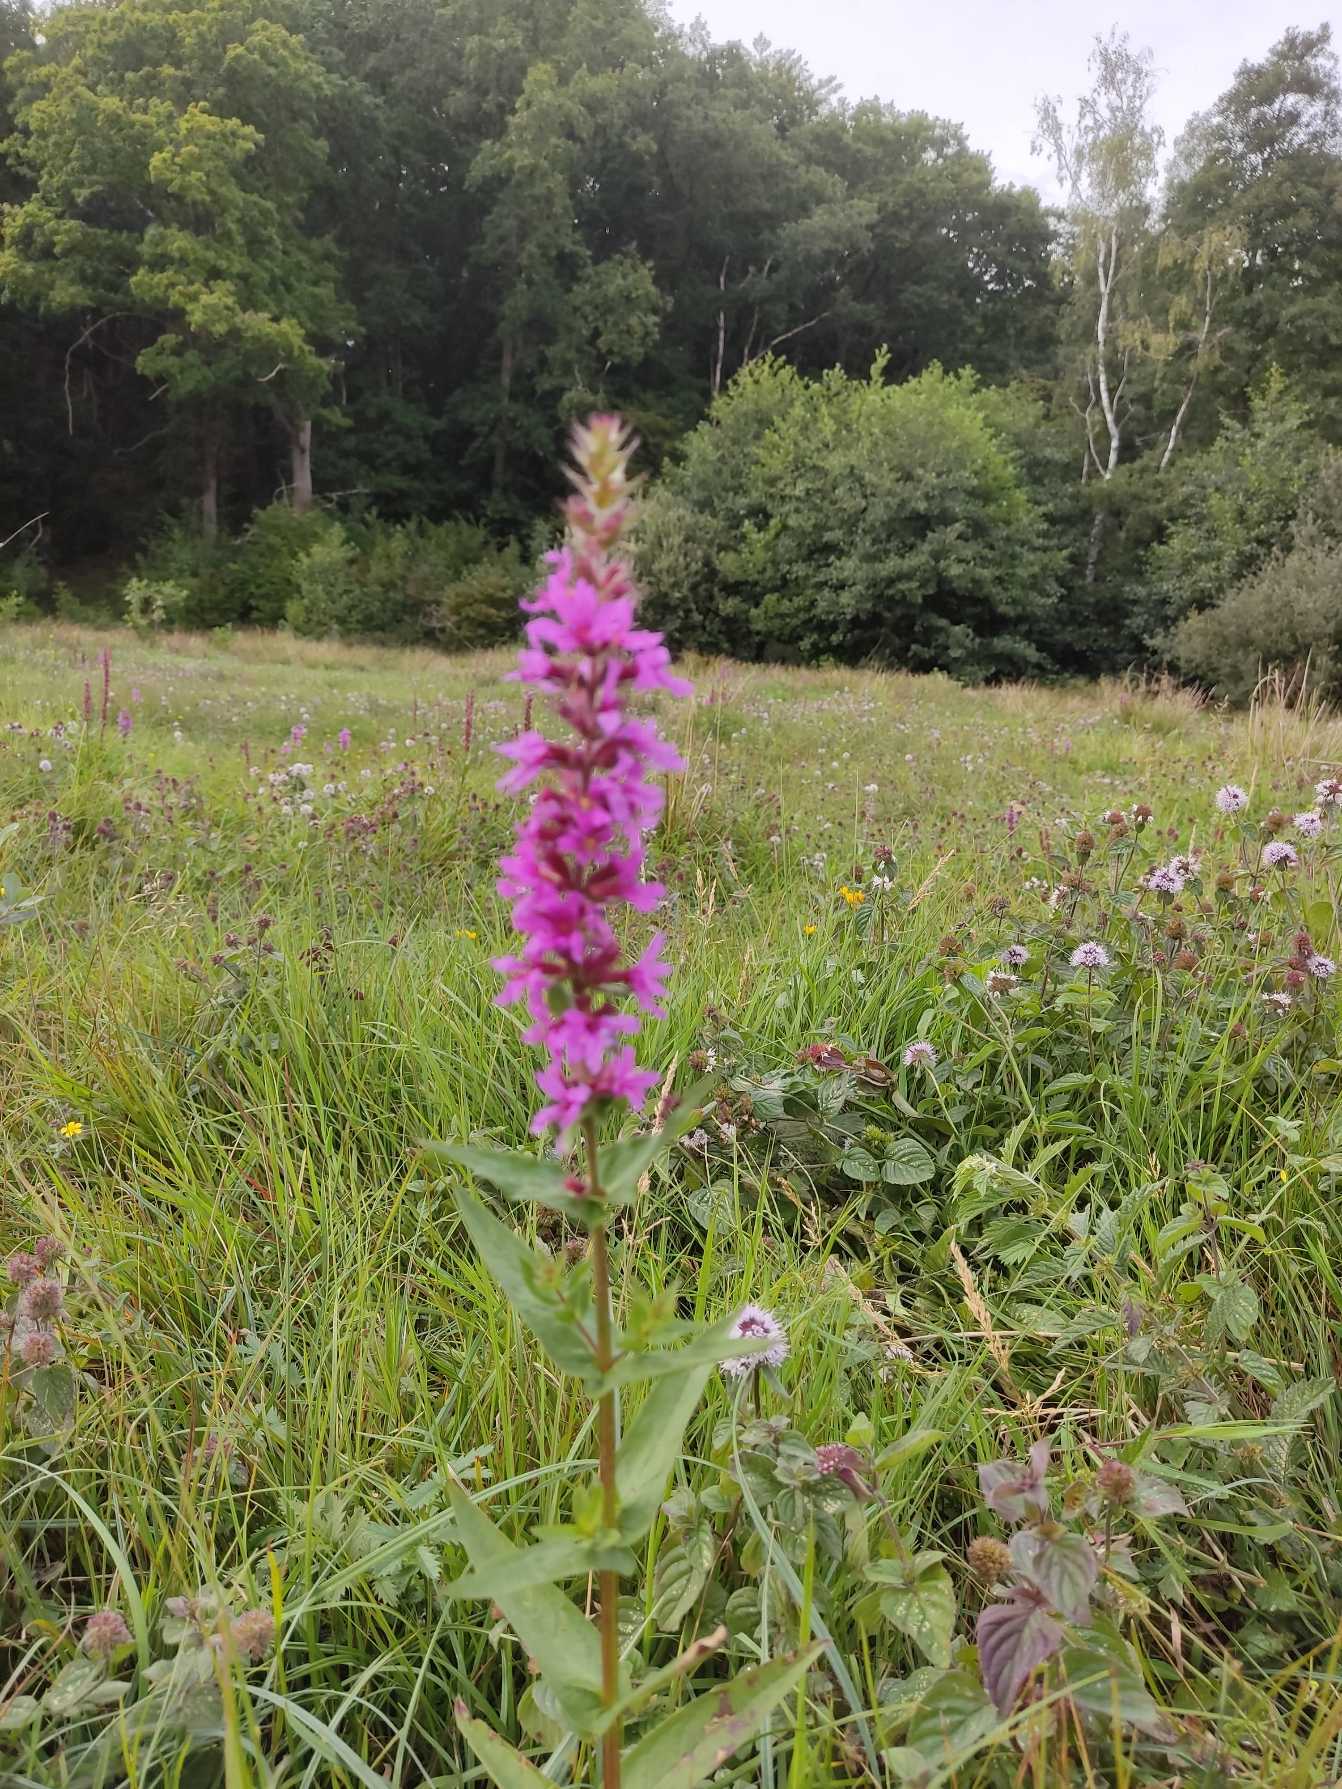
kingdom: Plantae
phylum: Tracheophyta
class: Magnoliopsida
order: Myrtales
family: Lythraceae
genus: Lythrum
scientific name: Lythrum salicaria
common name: Kattehale
